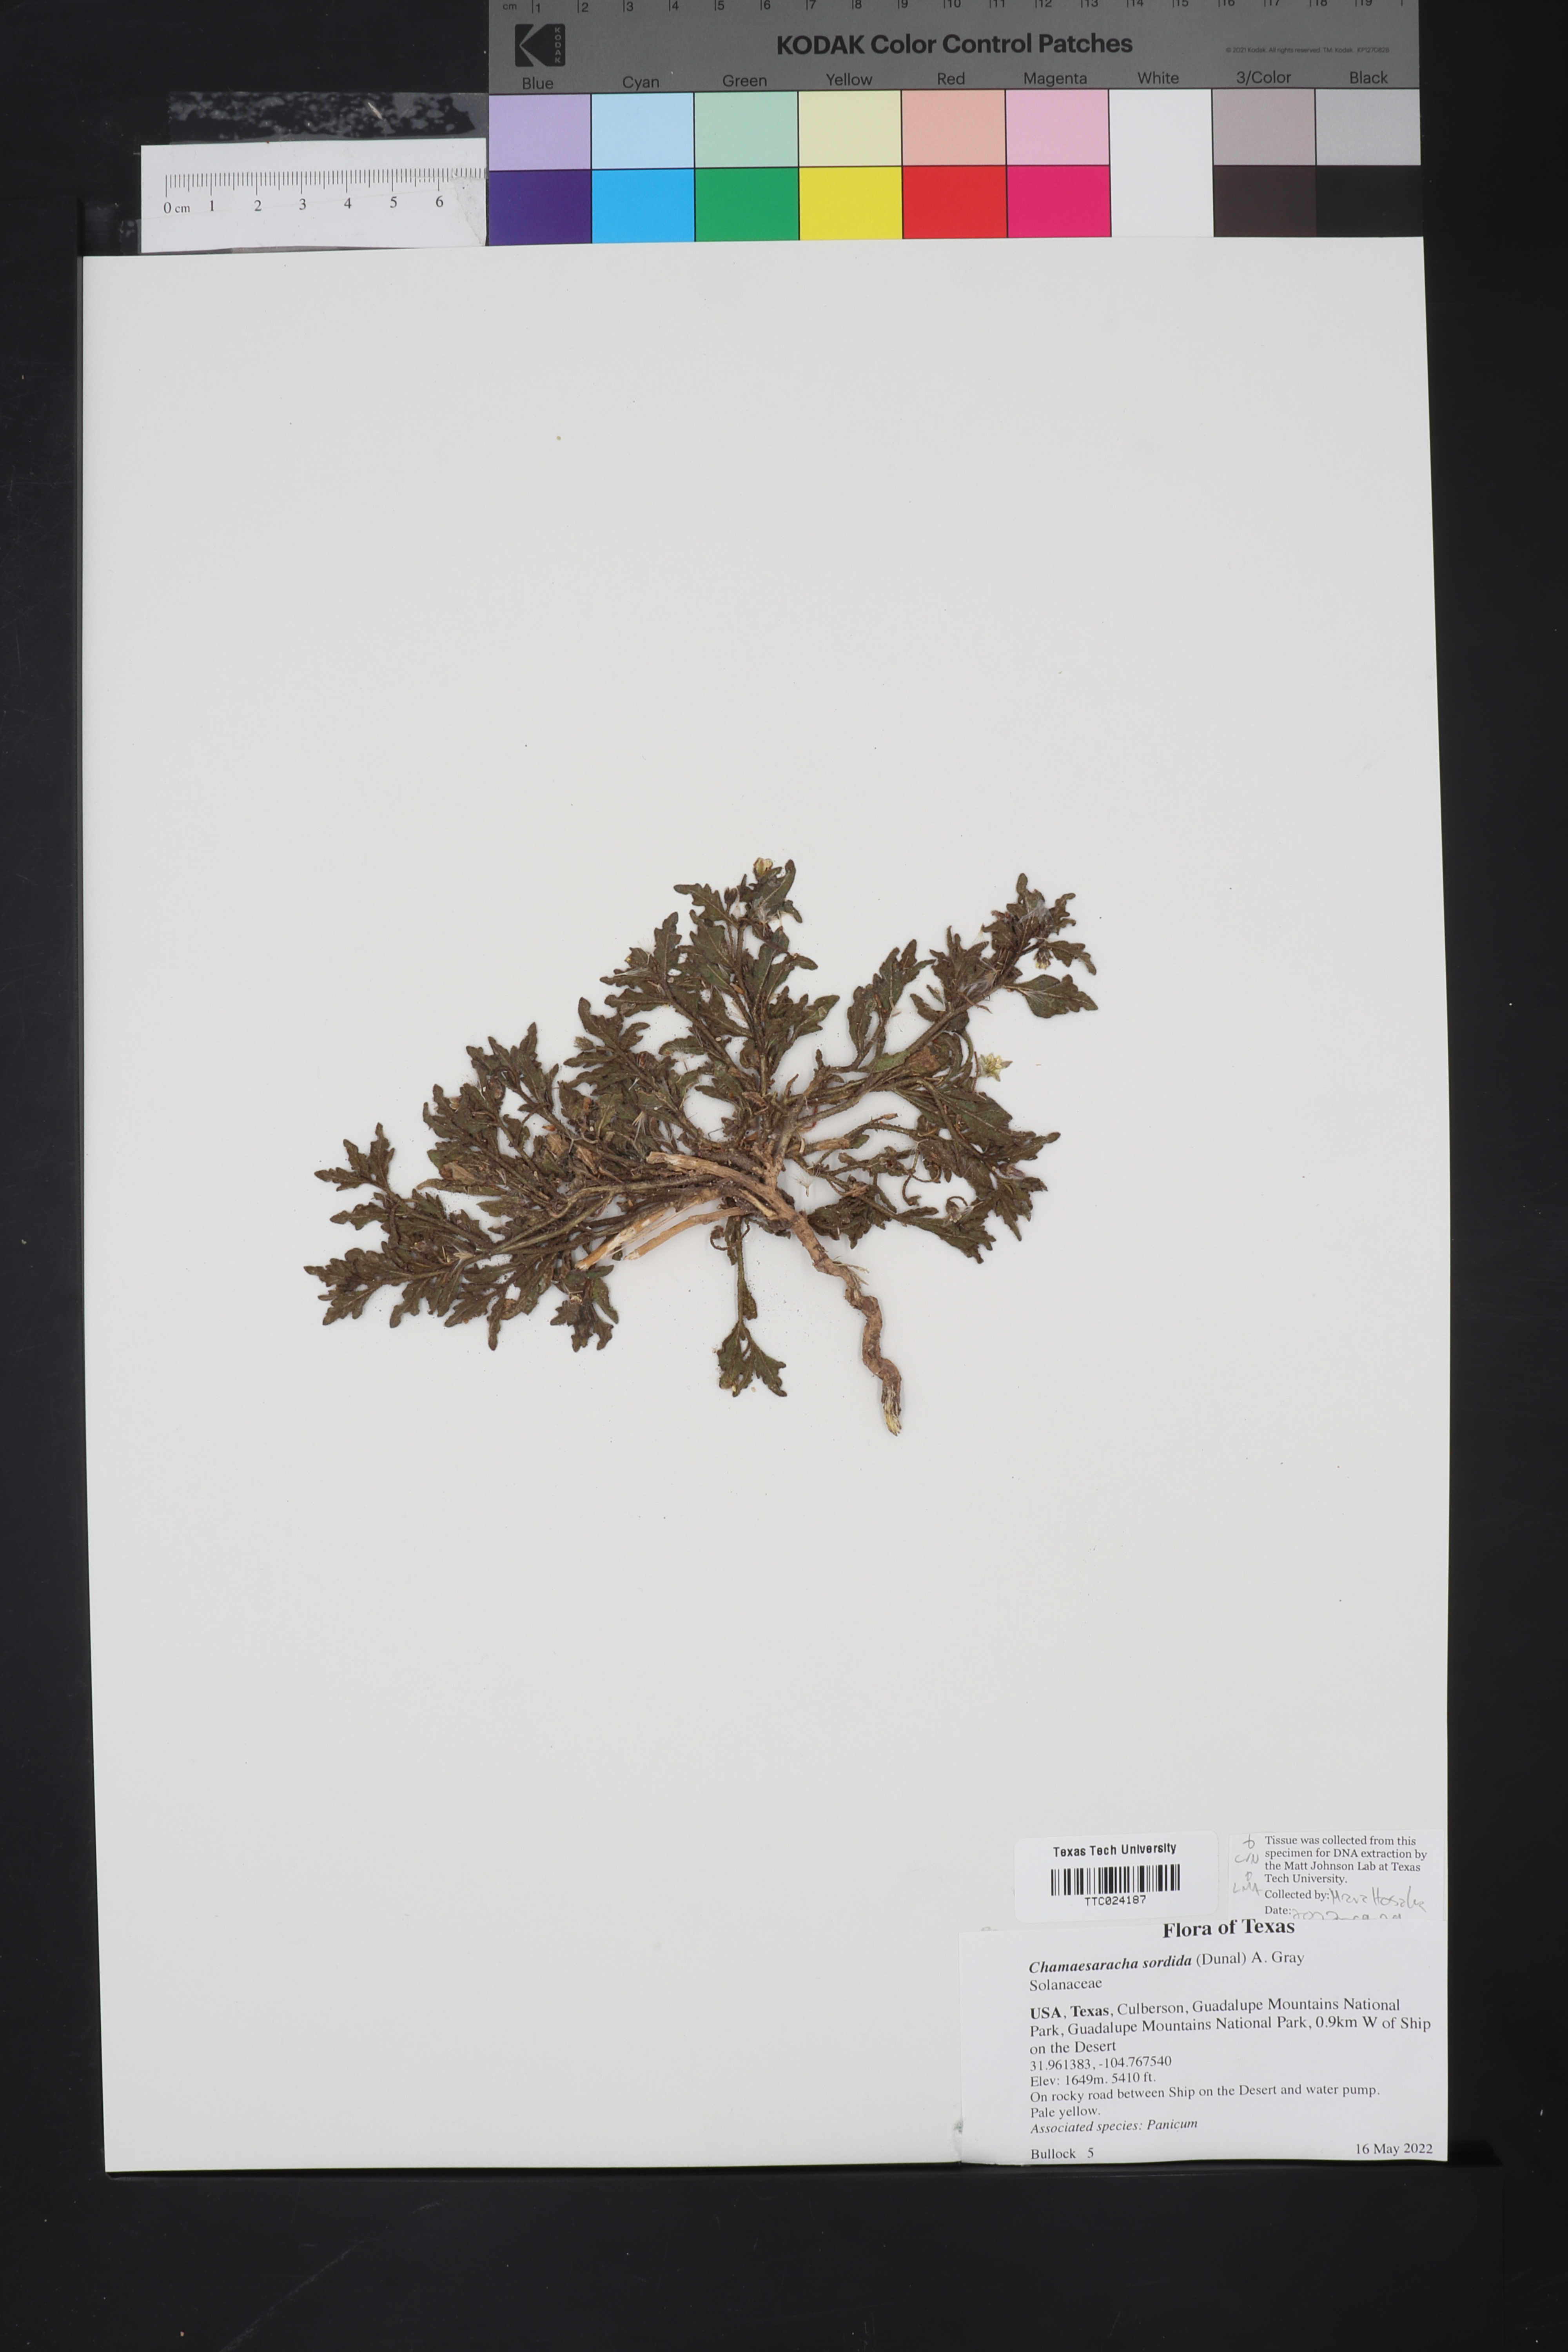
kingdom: Plantae
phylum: Tracheophyta
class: Magnoliopsida
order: Solanales
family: Solanaceae
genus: Chamaesaracha
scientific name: Chamaesaracha sordida
